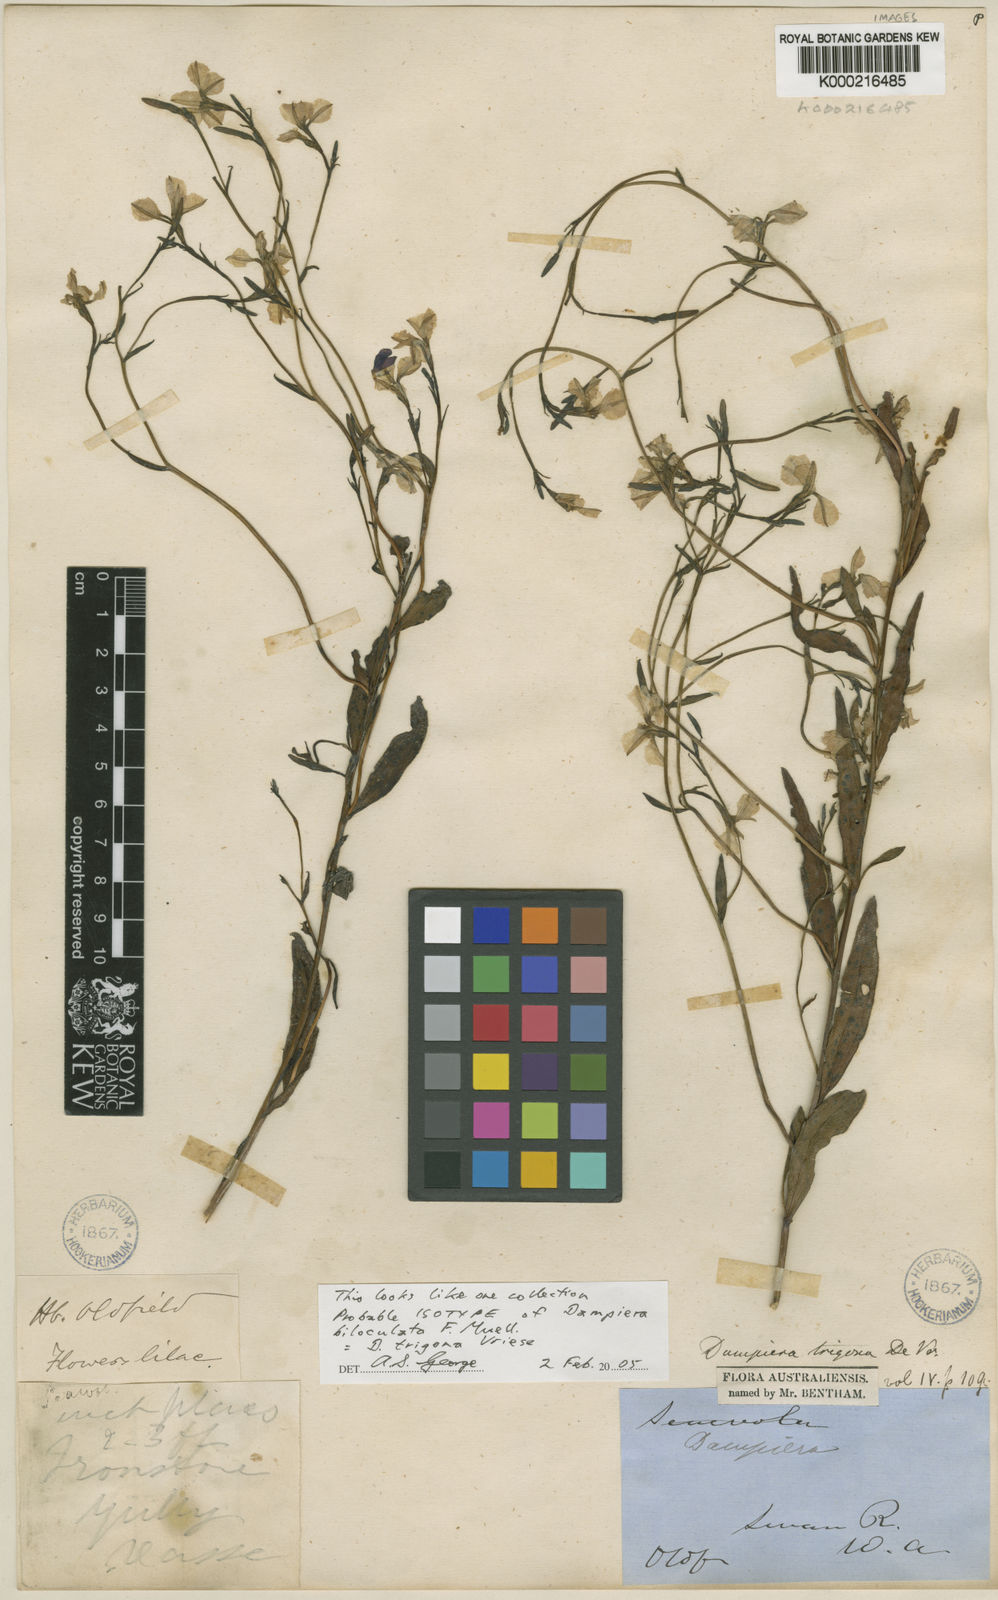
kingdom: Plantae
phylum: Tracheophyta
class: Magnoliopsida
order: Asterales
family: Goodeniaceae
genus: Dampiera
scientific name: Dampiera trigona
